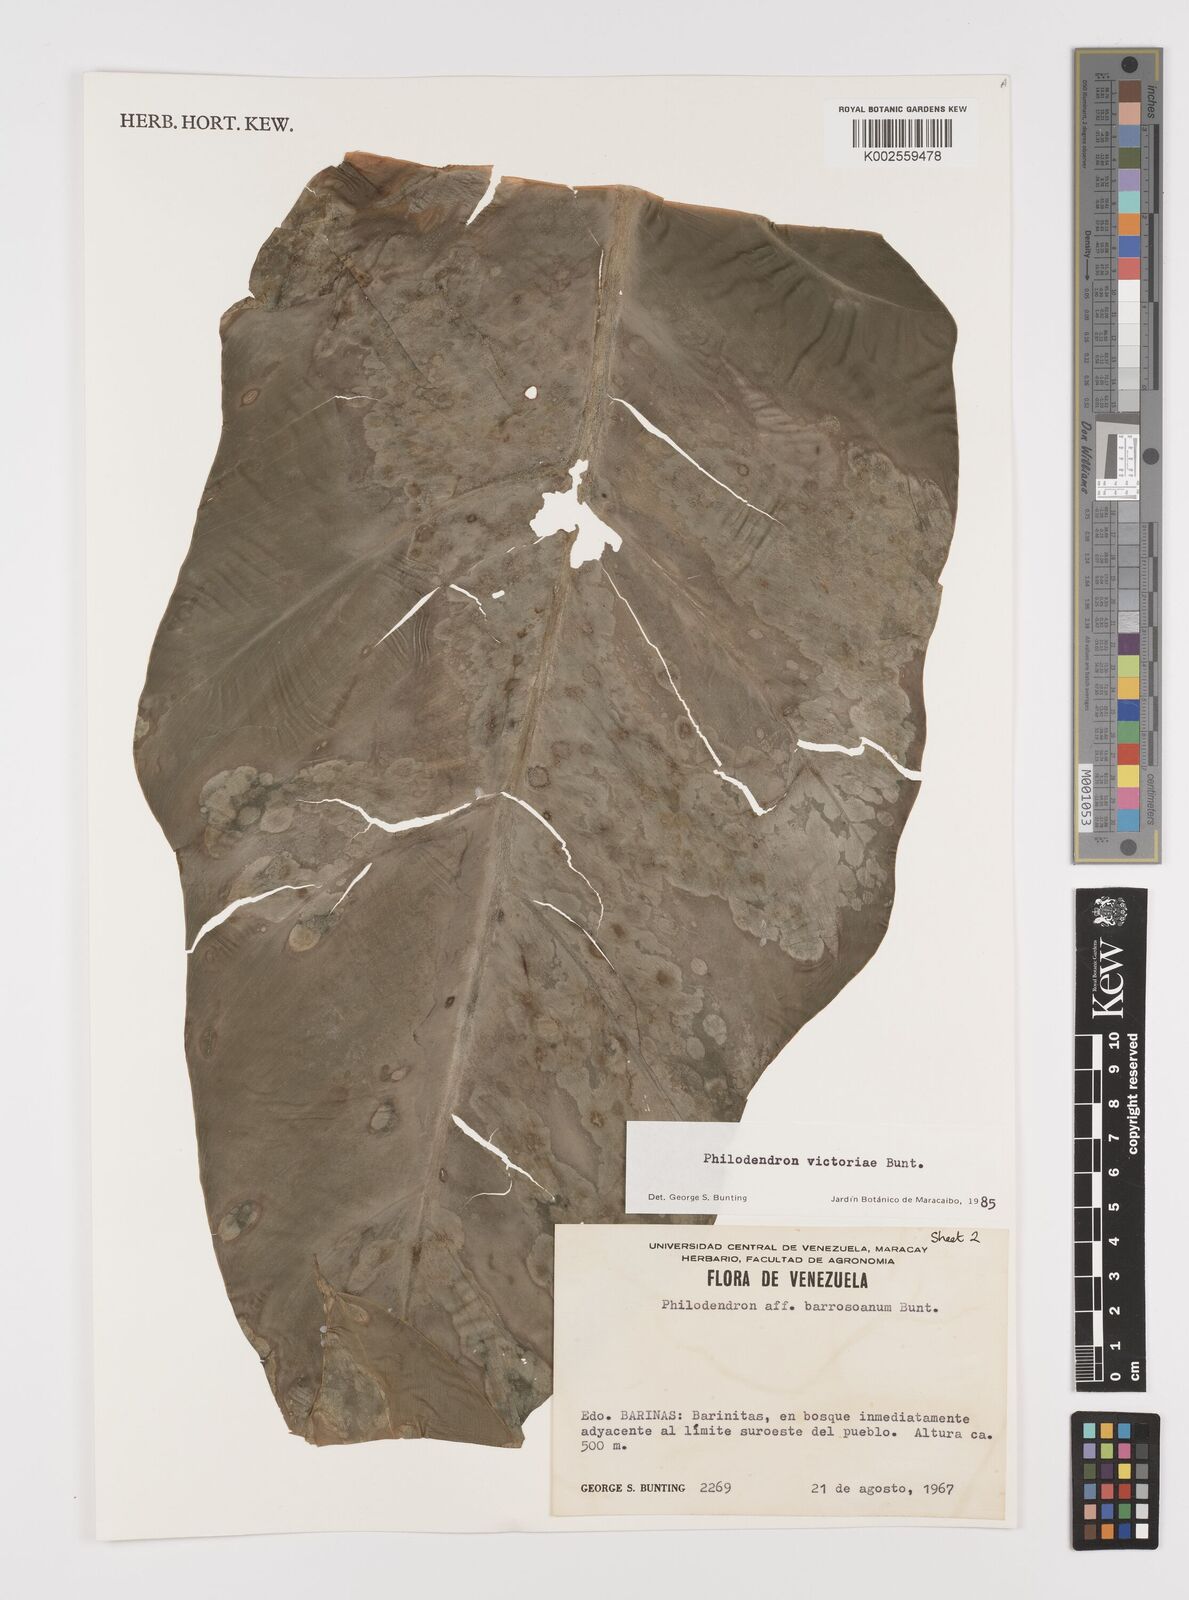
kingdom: Plantae
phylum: Tracheophyta
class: Liliopsida
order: Alismatales
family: Araceae
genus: Philodendron
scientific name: Philodendron victoriae
